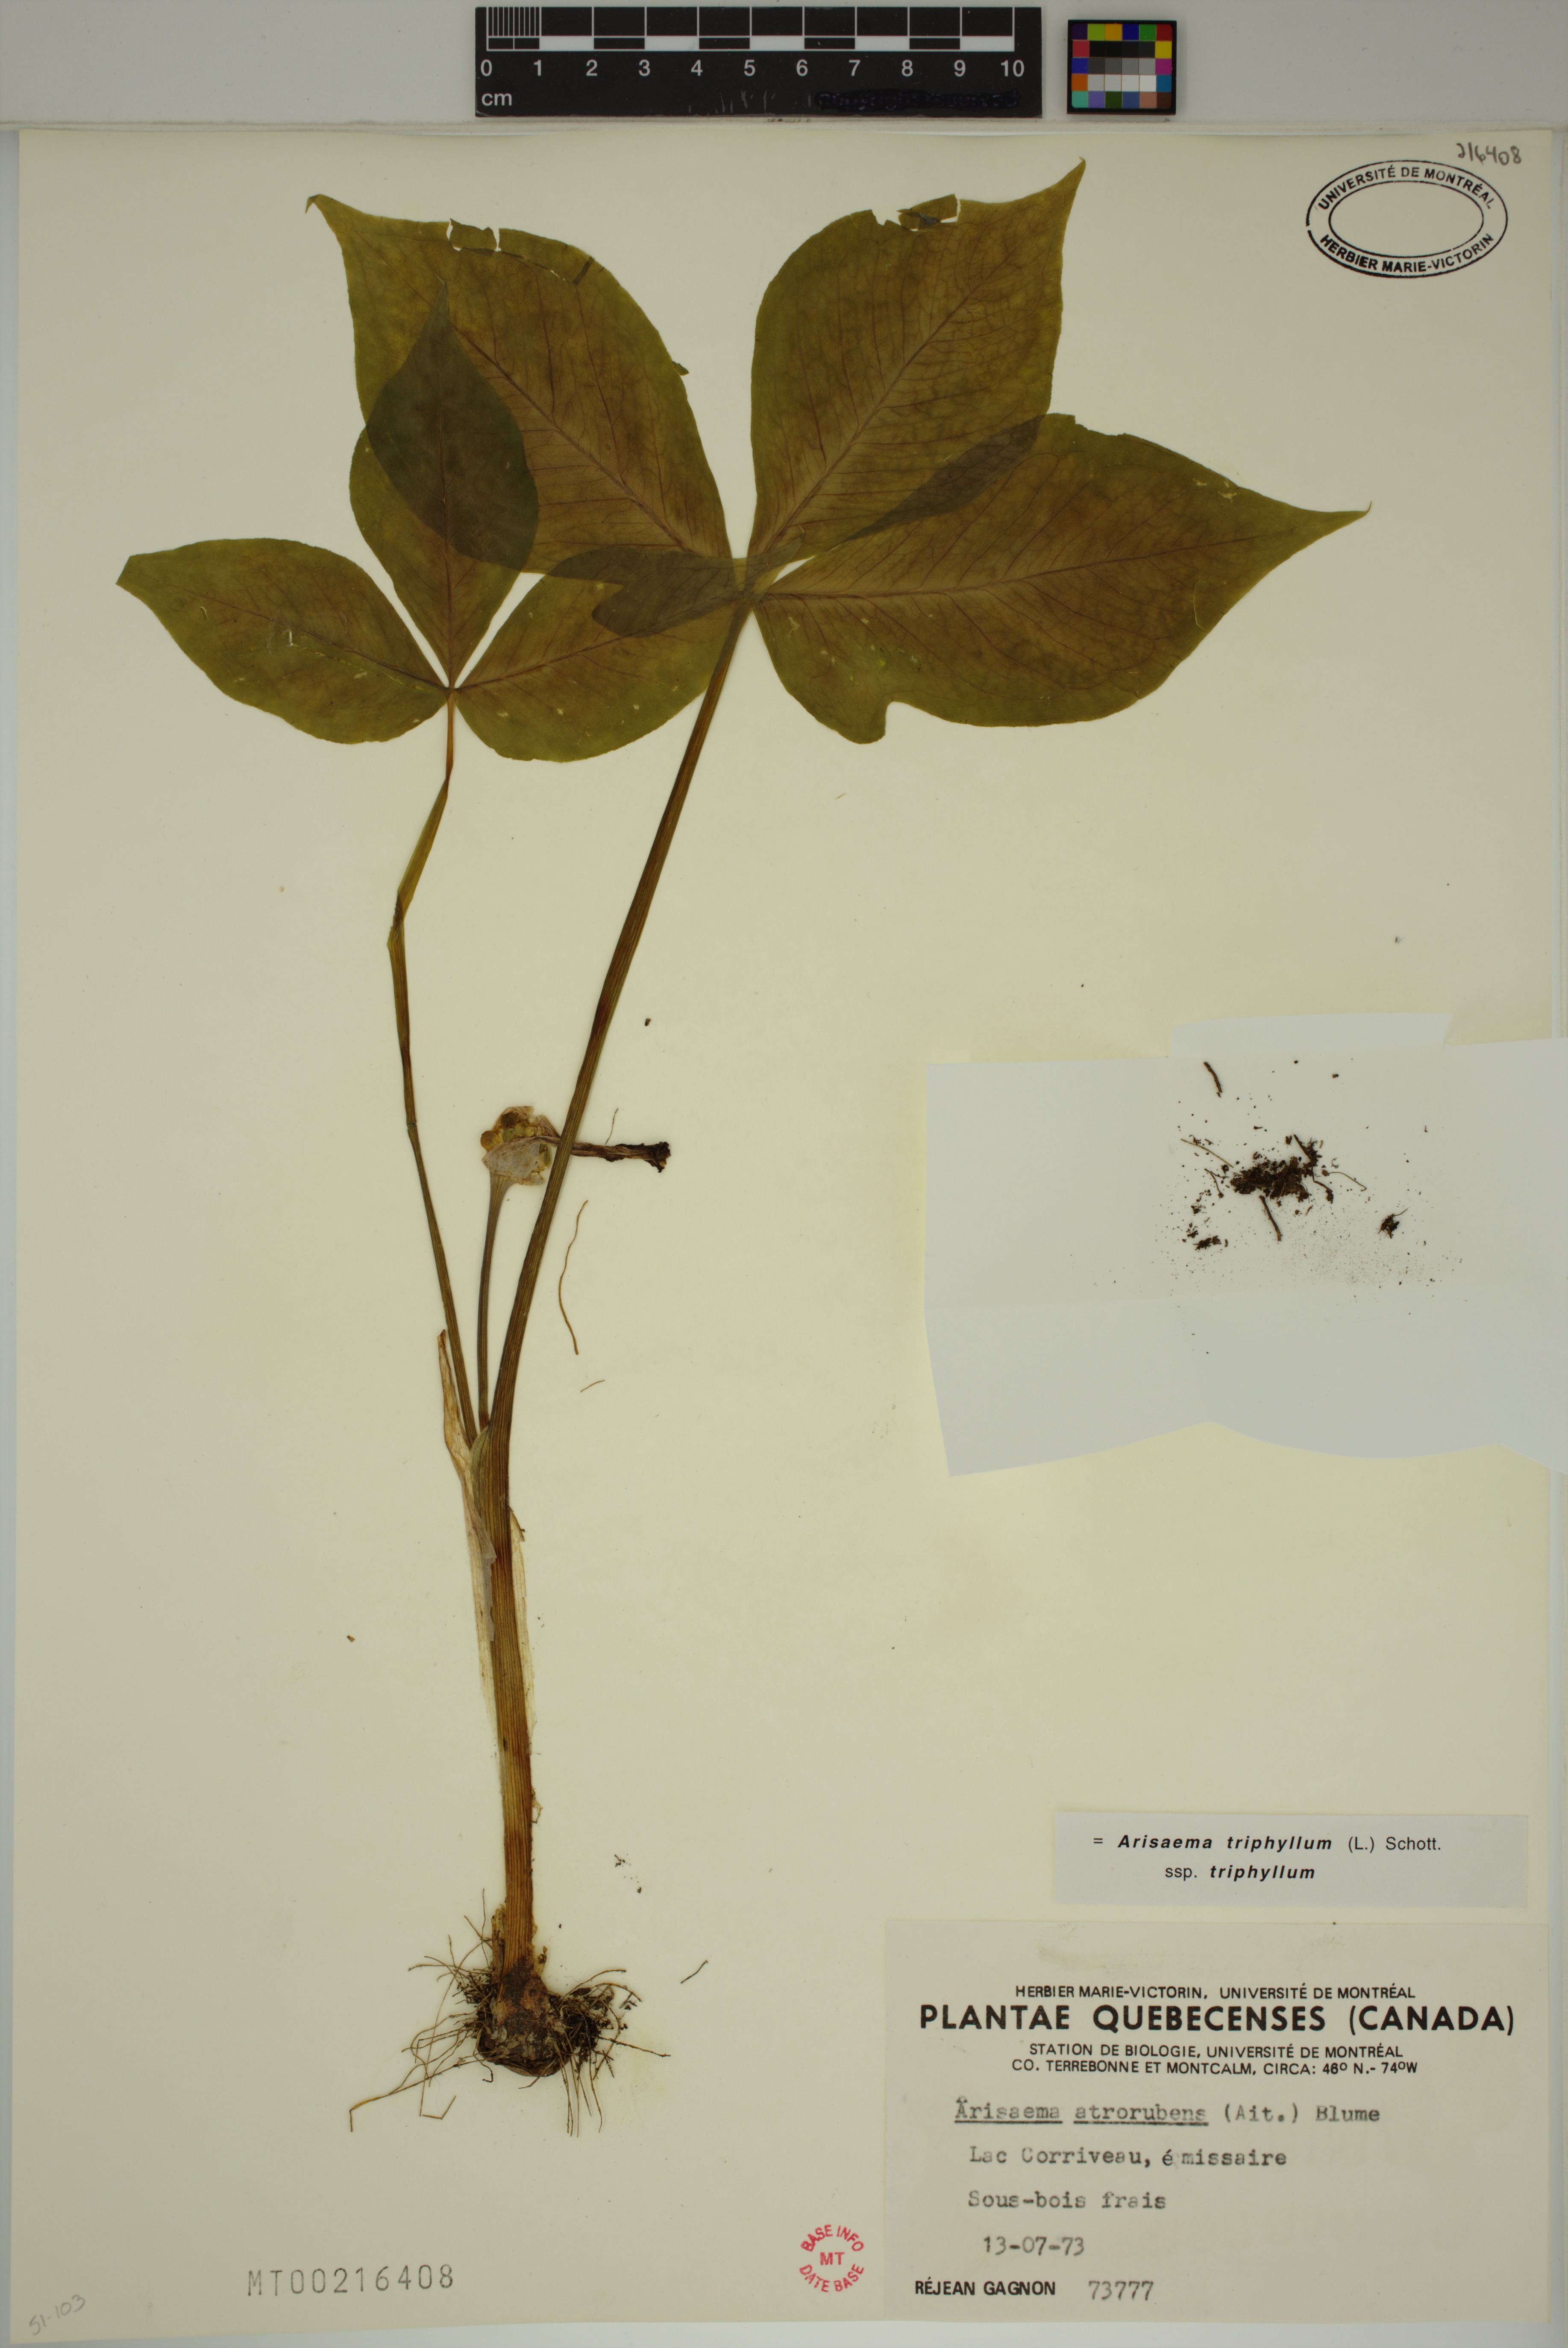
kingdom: Plantae
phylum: Tracheophyta
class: Liliopsida
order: Alismatales
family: Araceae
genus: Arisaema
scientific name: Arisaema triphyllum
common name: Jack-in-the-pulpit
